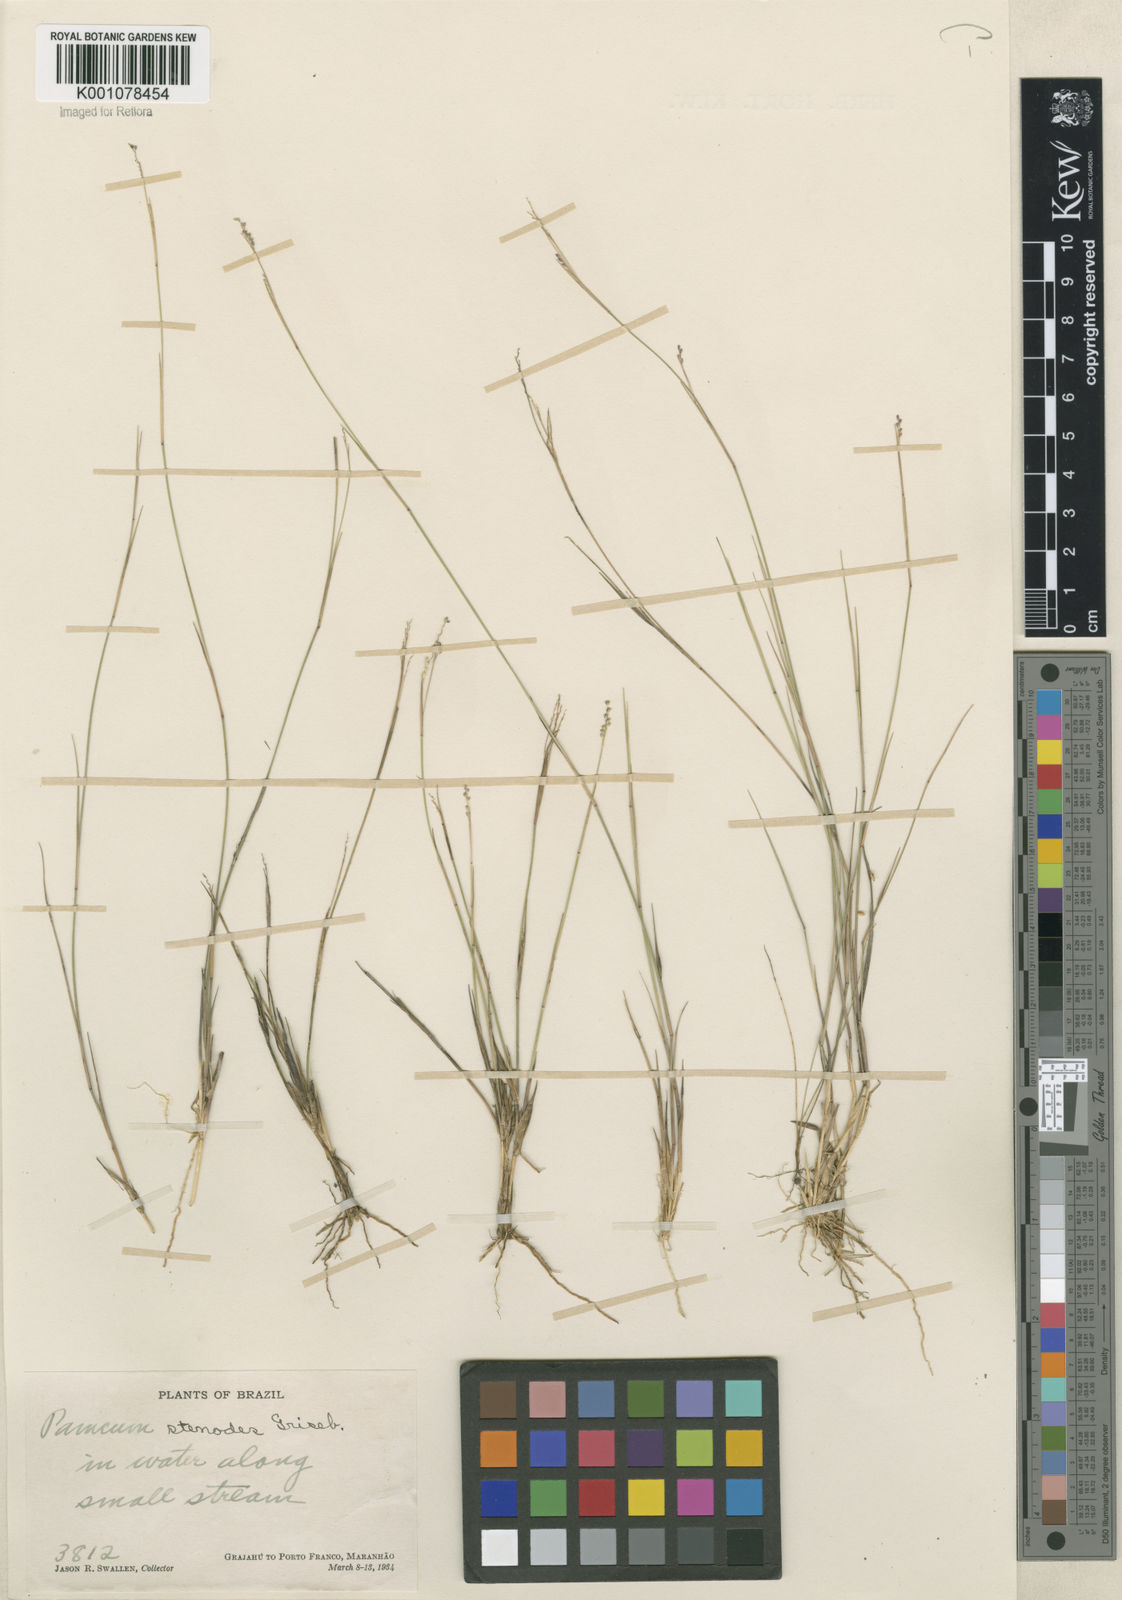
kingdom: Plantae
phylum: Tracheophyta
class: Liliopsida
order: Poales
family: Poaceae
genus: Coleataenia
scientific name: Coleataenia stenodes
